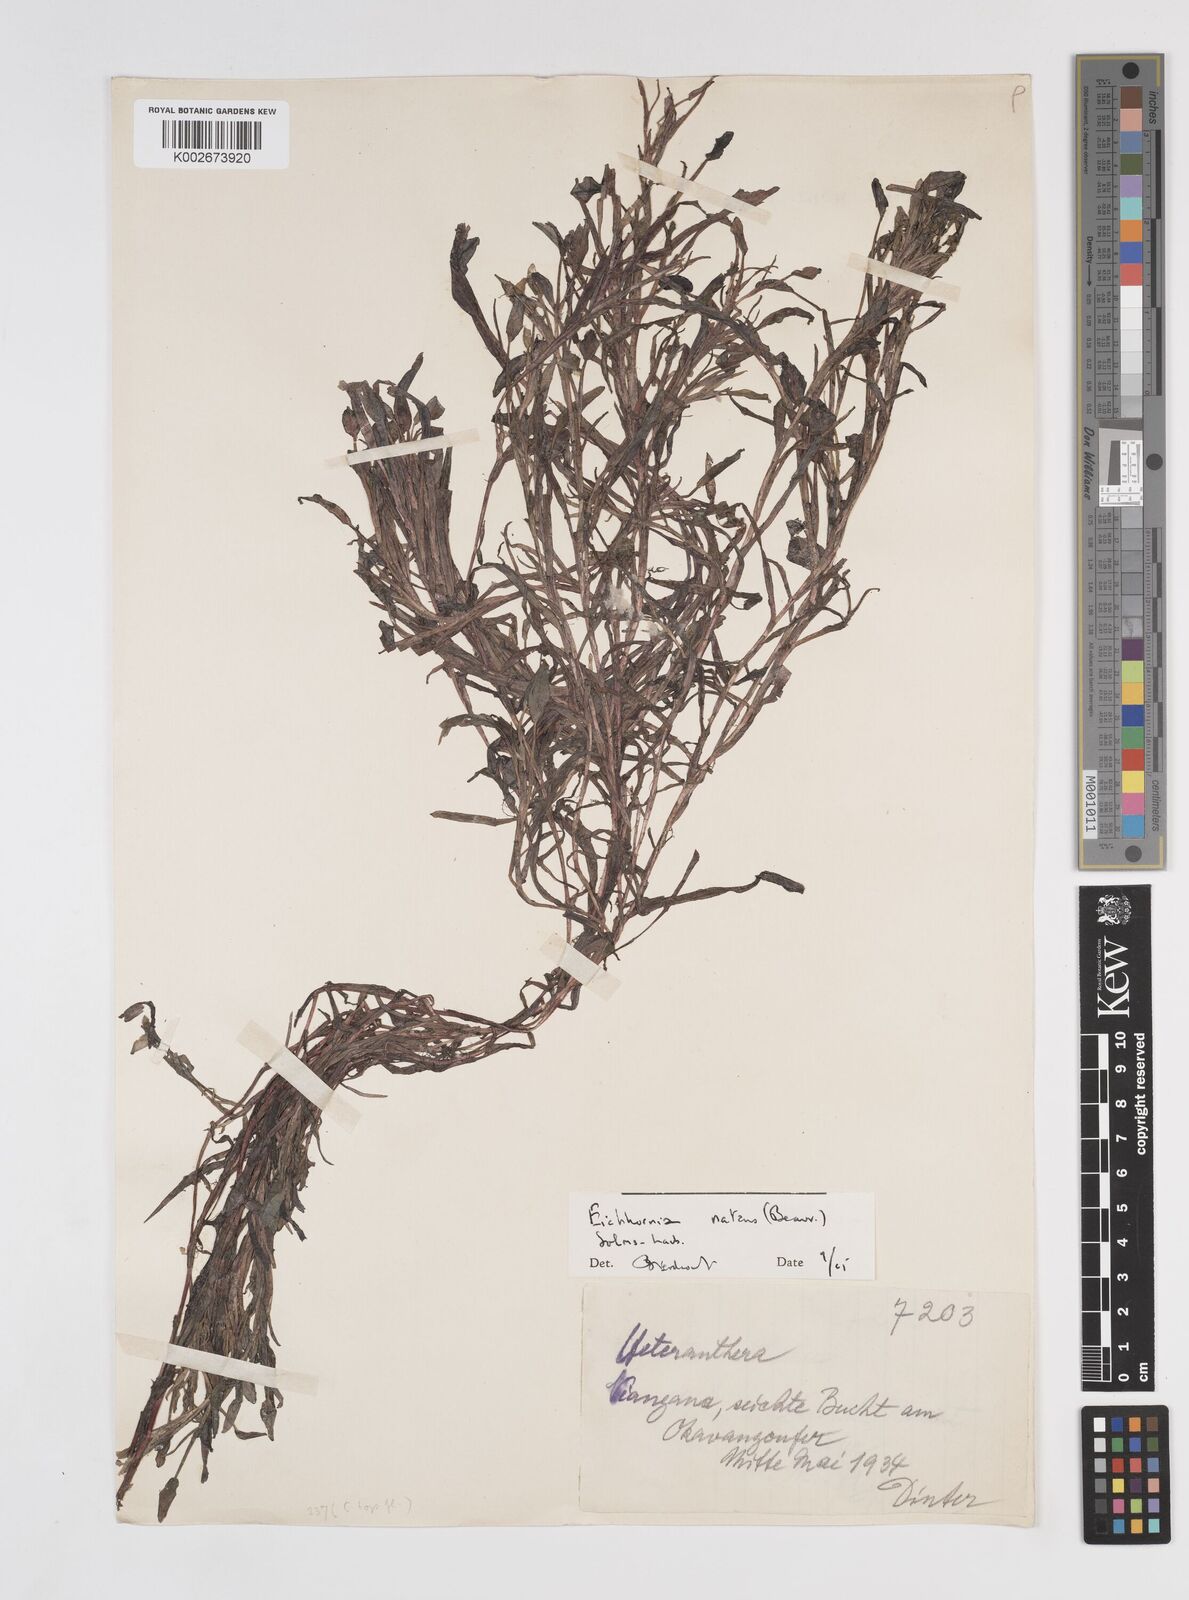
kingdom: Plantae
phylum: Tracheophyta
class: Liliopsida
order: Commelinales
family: Pontederiaceae
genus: Pontederia
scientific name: Pontederia natans
